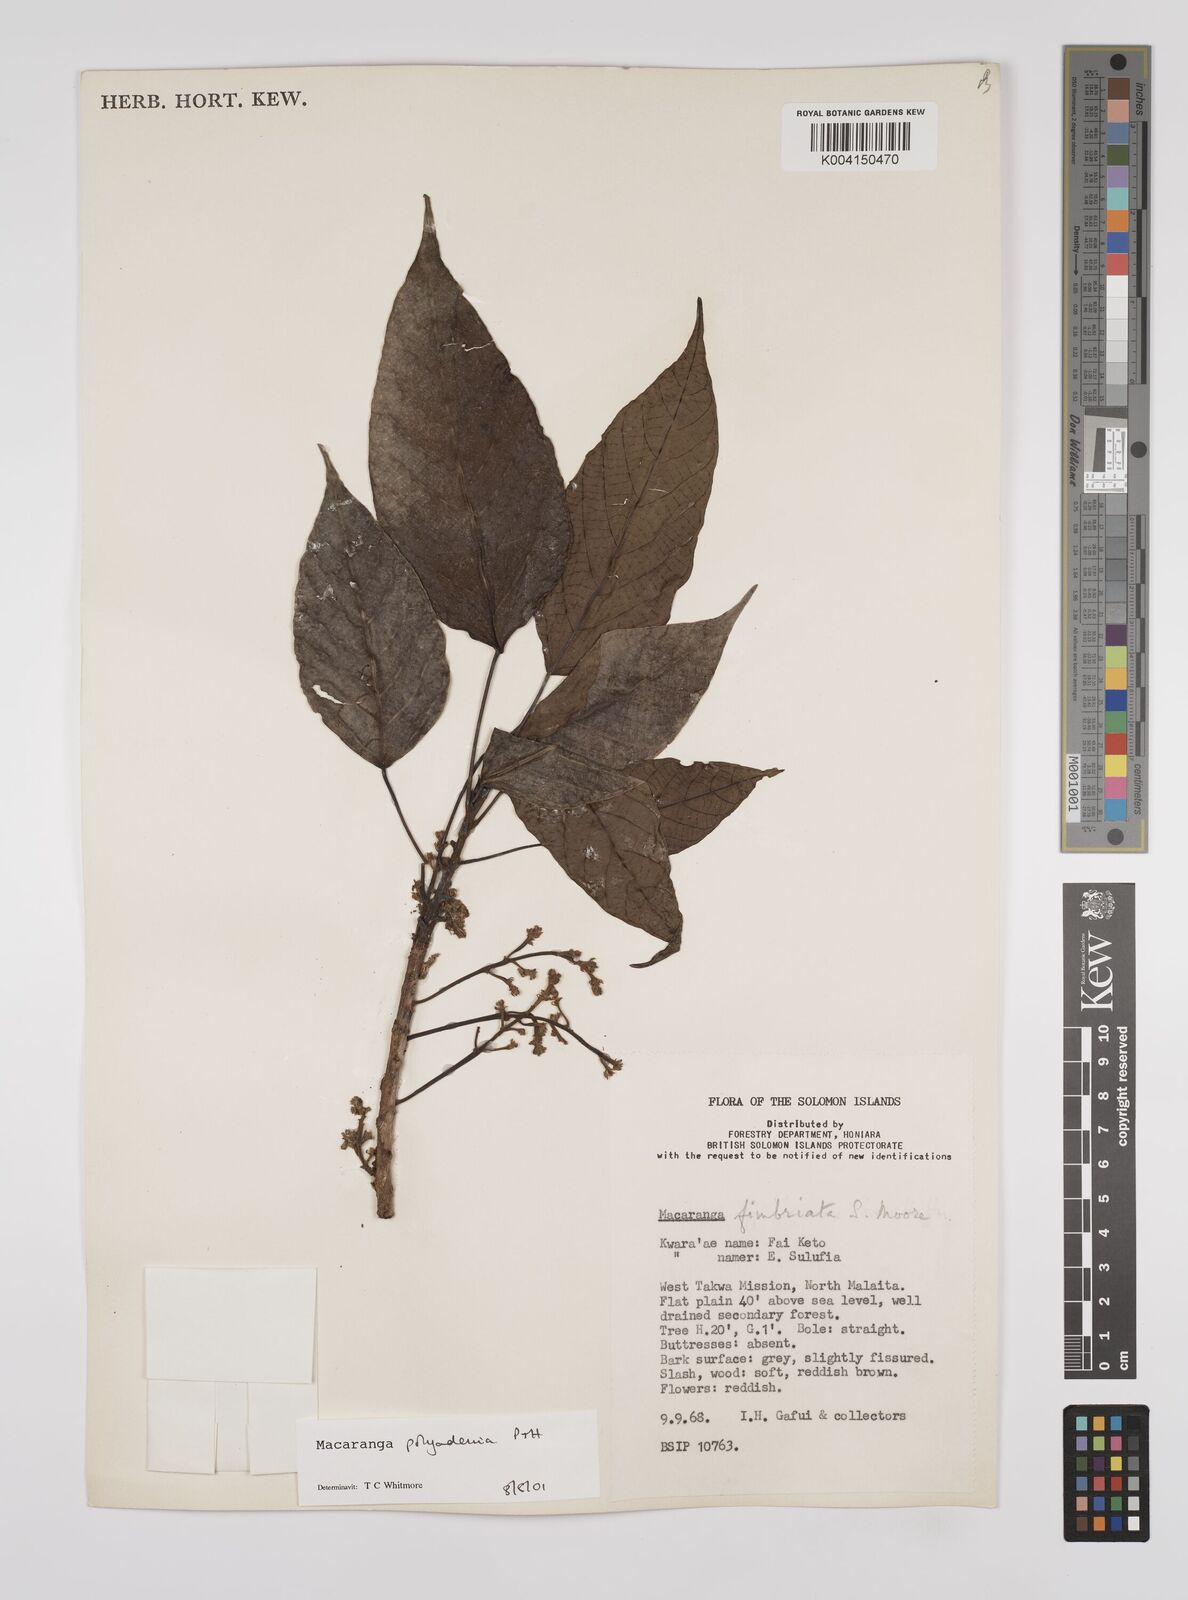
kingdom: Plantae
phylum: Tracheophyta
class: Magnoliopsida
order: Malpighiales
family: Euphorbiaceae
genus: Macaranga
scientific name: Macaranga polyadenia
